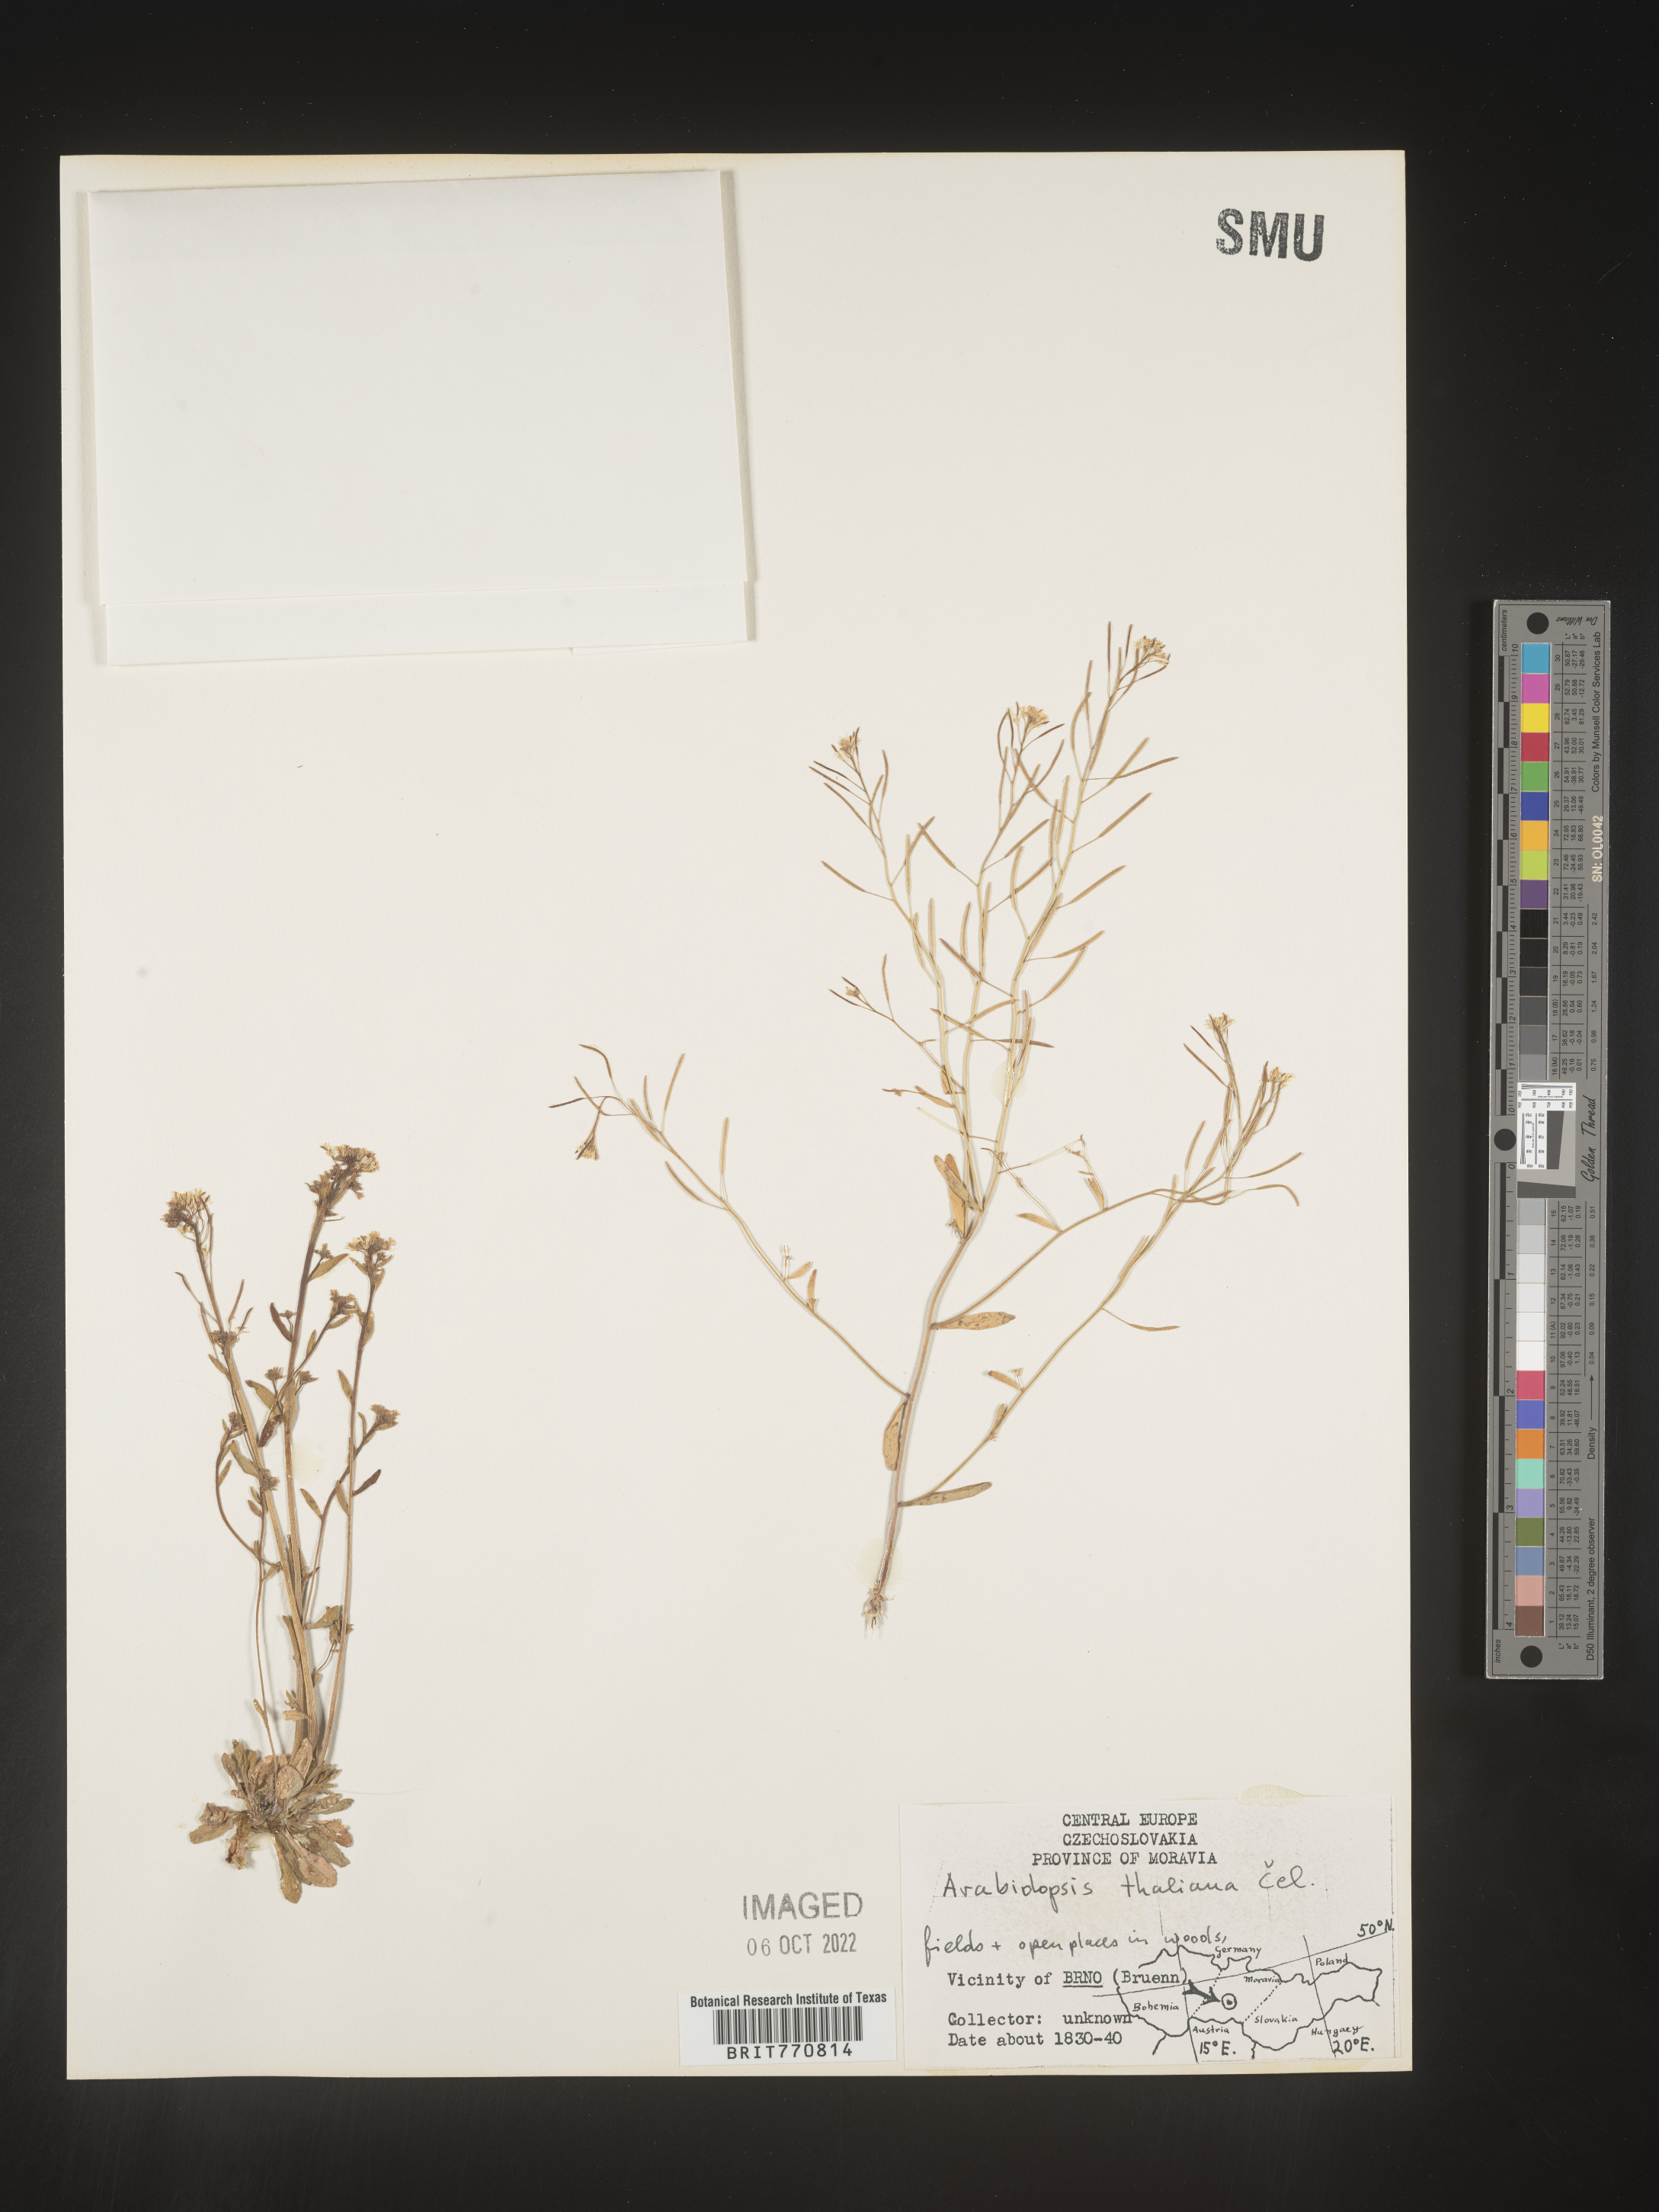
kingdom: Plantae
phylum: Tracheophyta
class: Magnoliopsida
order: Brassicales
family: Brassicaceae
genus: Arabidopsis
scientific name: Arabidopsis
